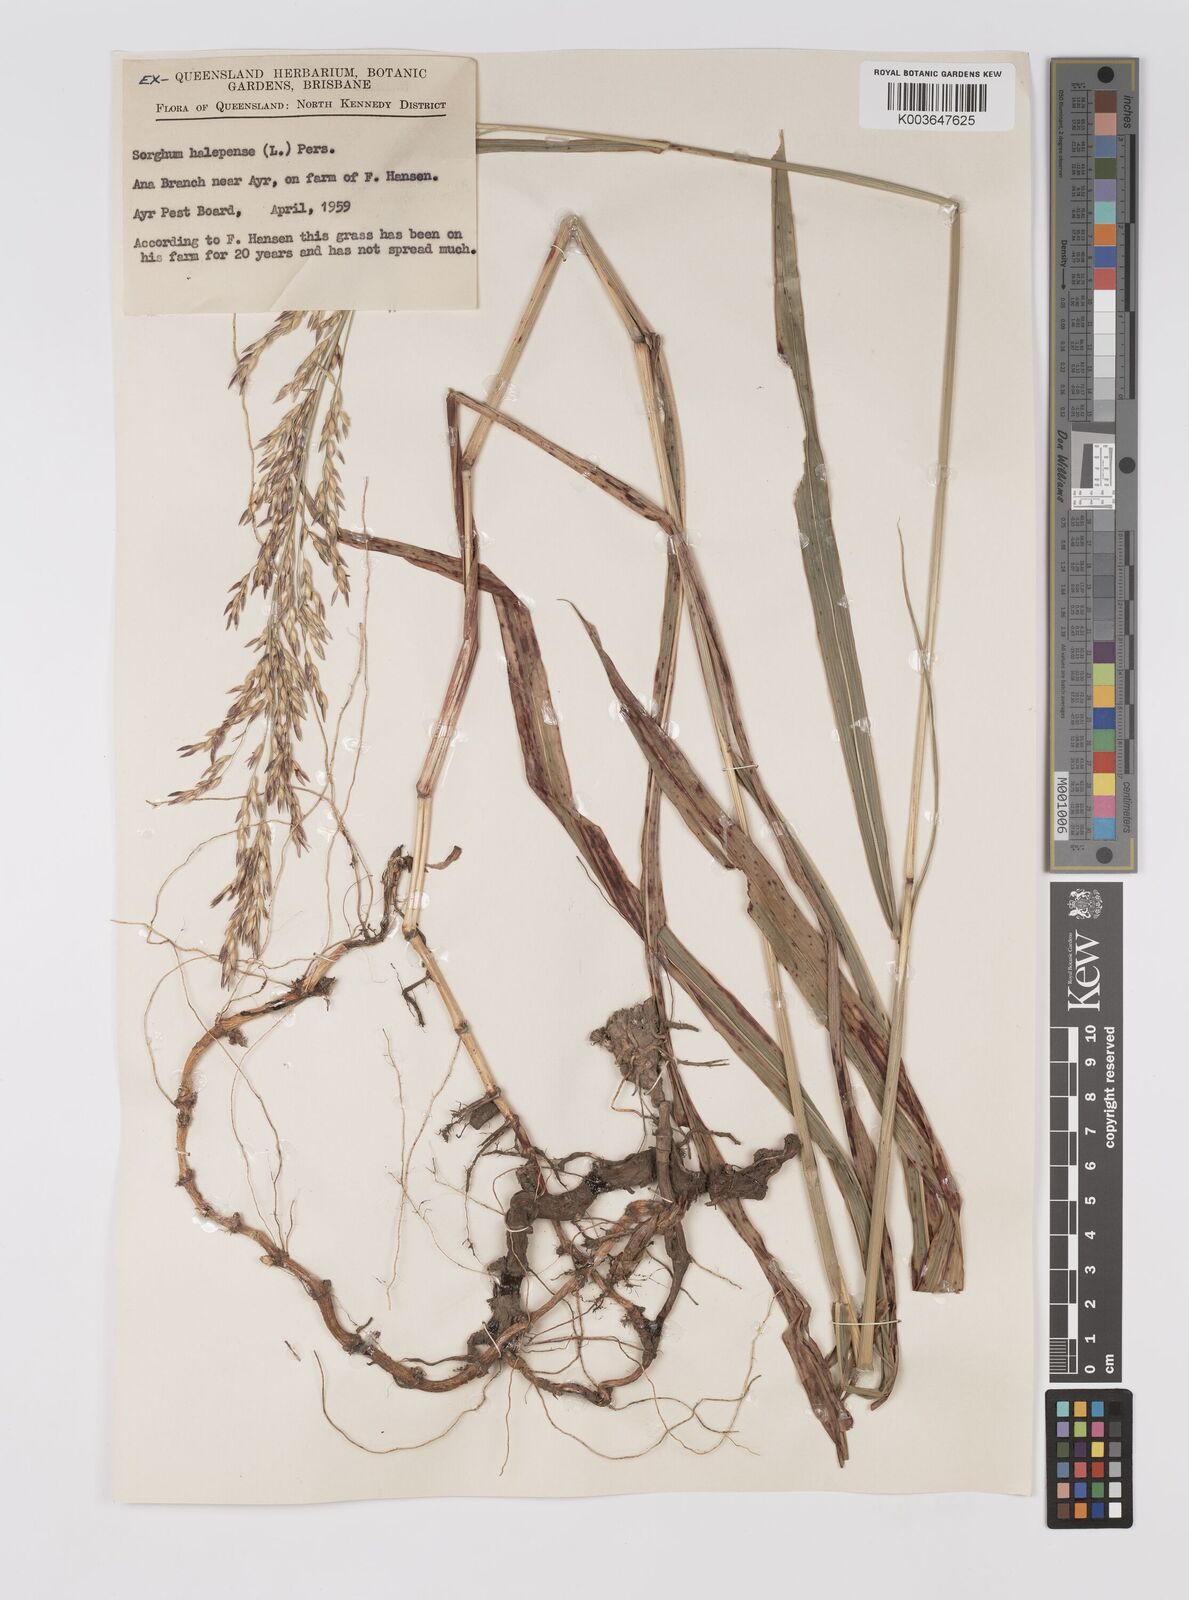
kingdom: Plantae
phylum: Tracheophyta
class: Liliopsida
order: Poales
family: Poaceae
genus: Sorghum
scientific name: Sorghum halepense
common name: Johnson-grass
